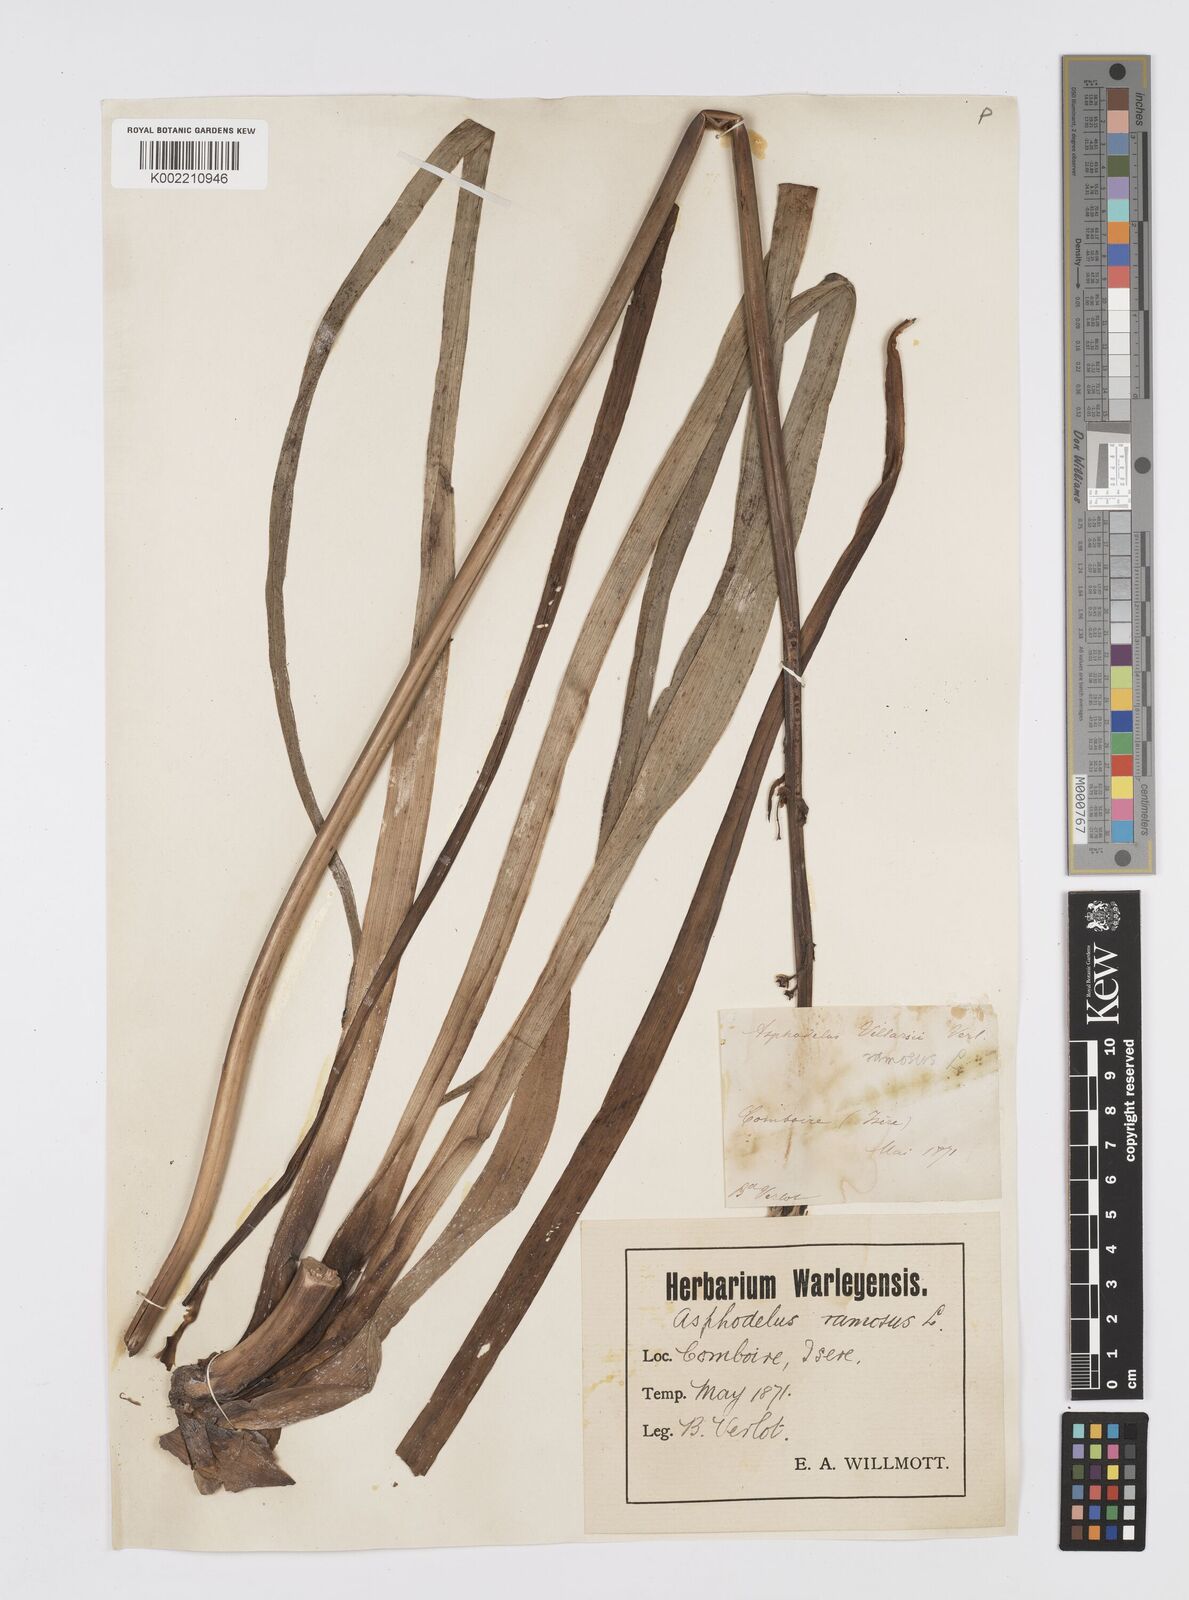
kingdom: Plantae
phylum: Tracheophyta
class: Liliopsida
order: Asparagales
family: Asphodelaceae
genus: Asphodelus
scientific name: Asphodelus aestivus
